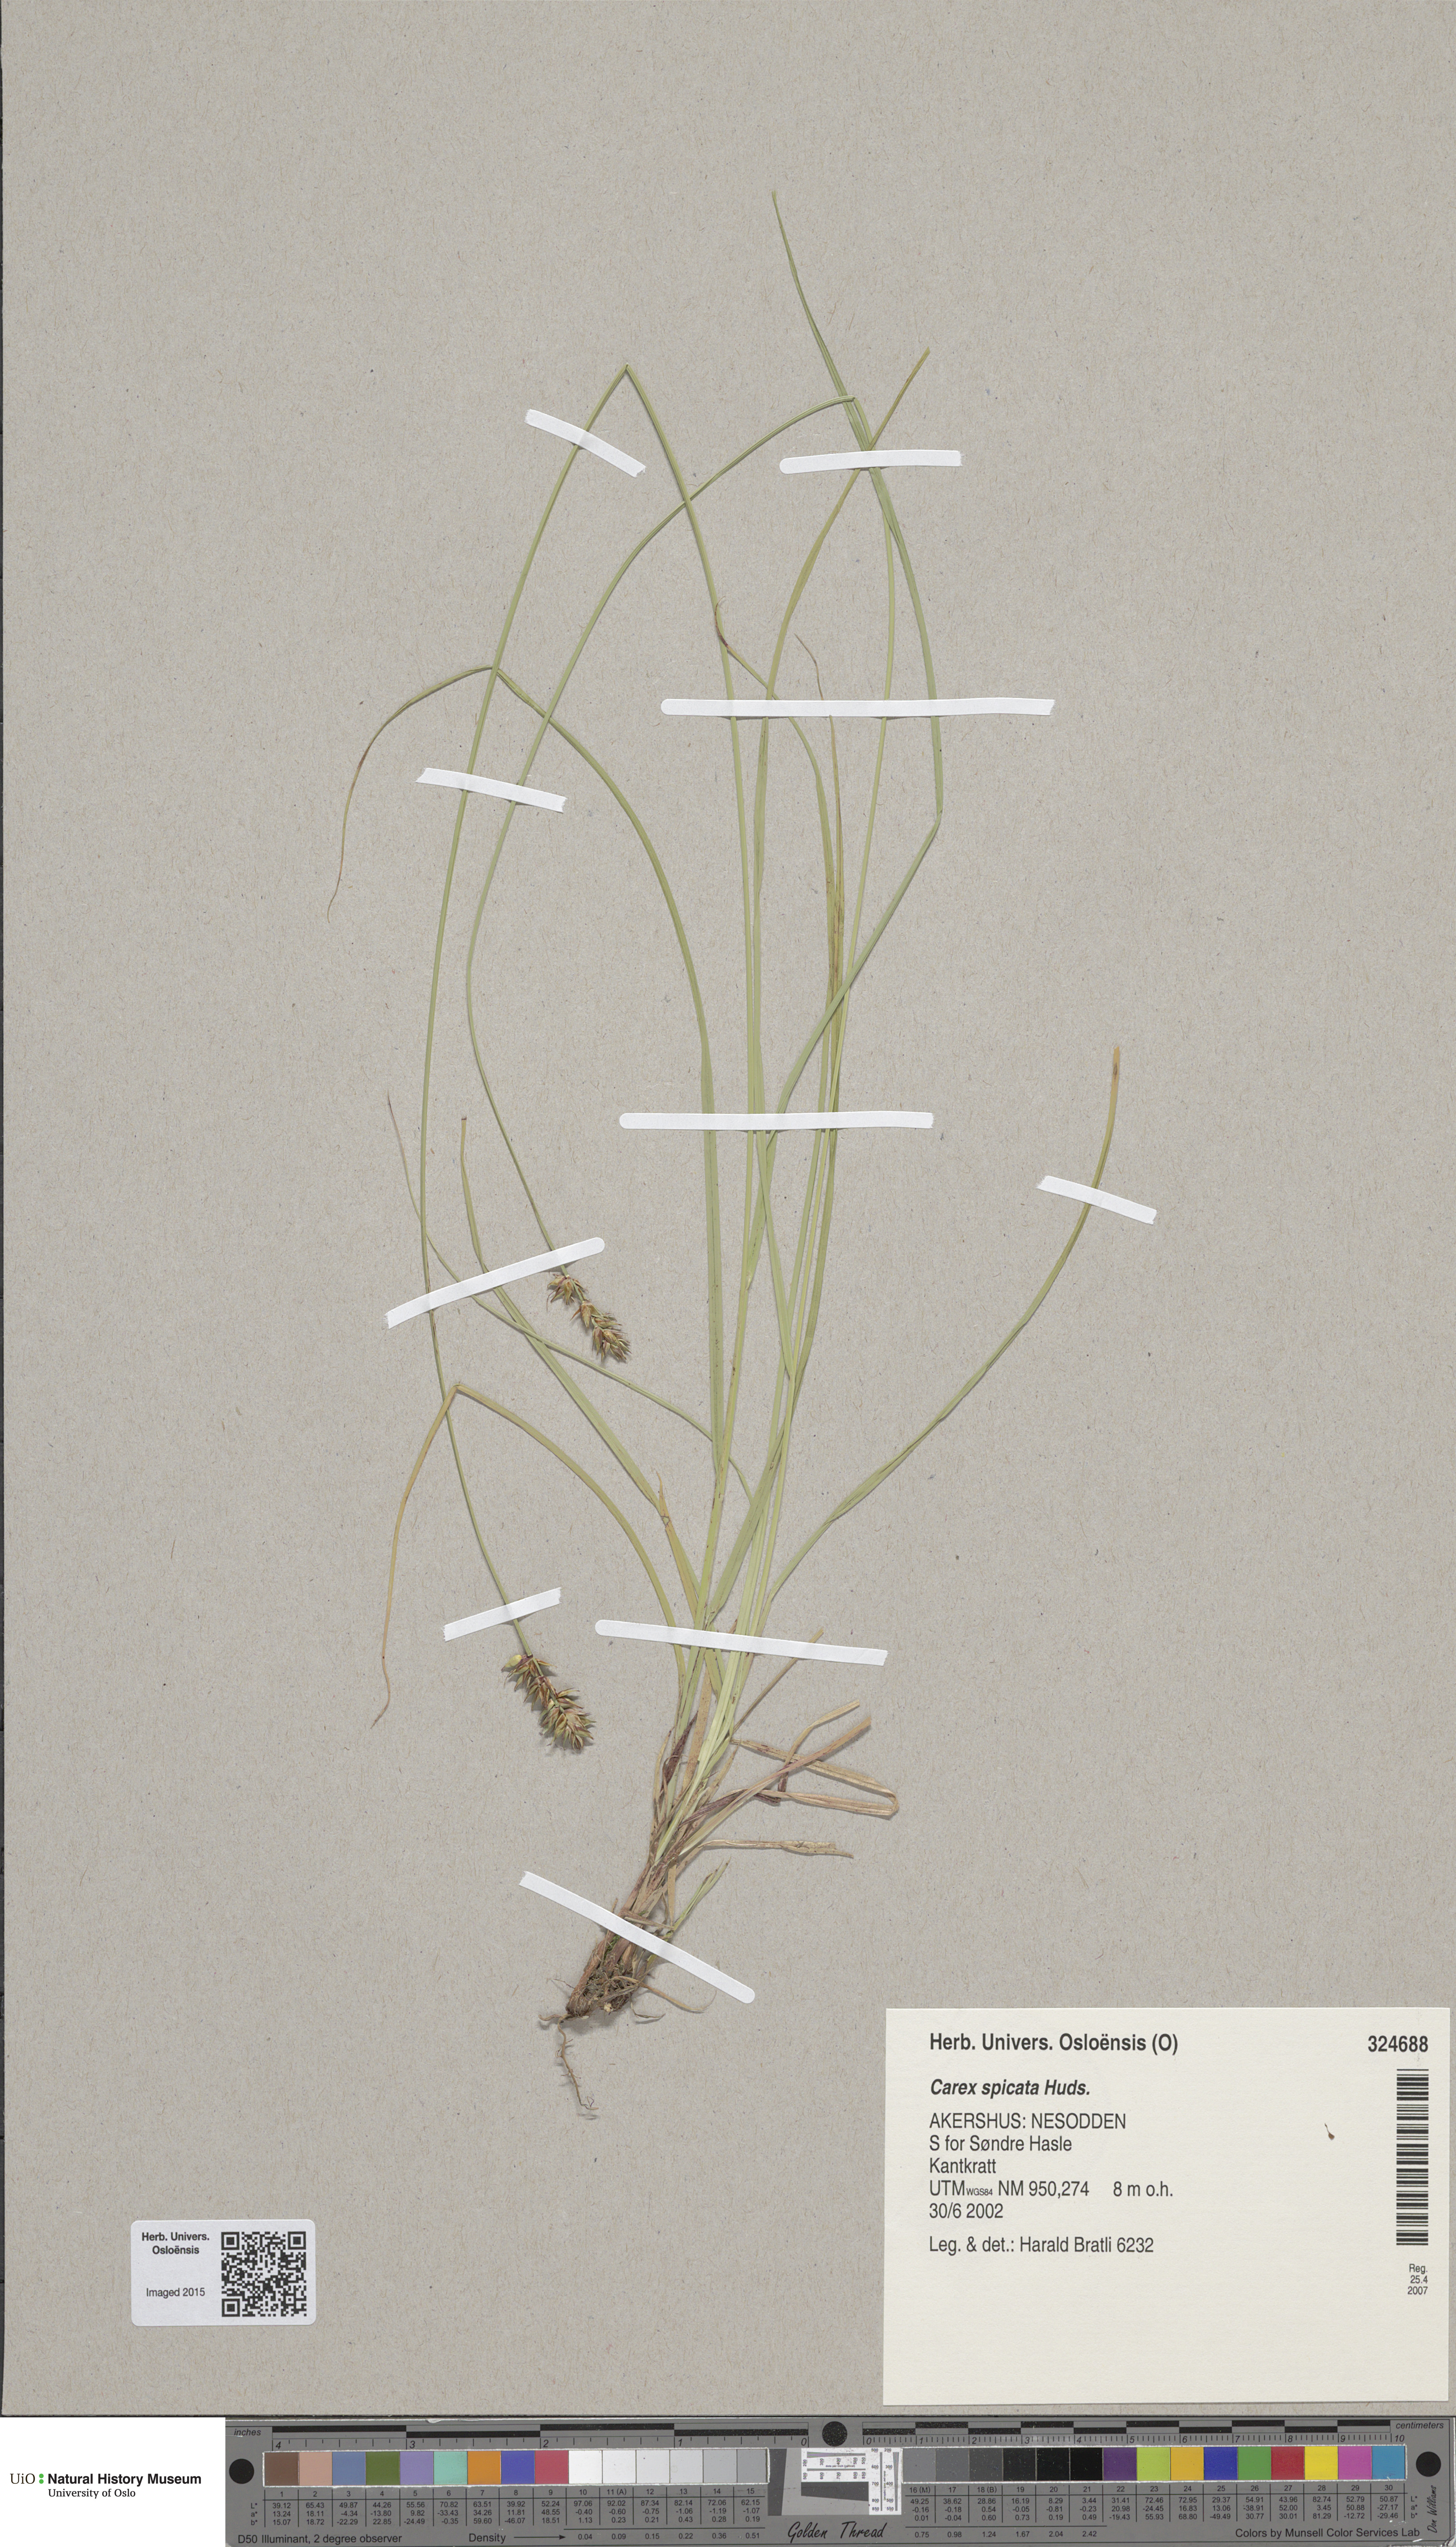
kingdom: Plantae
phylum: Tracheophyta
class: Liliopsida
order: Poales
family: Cyperaceae
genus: Carex
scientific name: Carex spicata
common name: Spiked sedge
